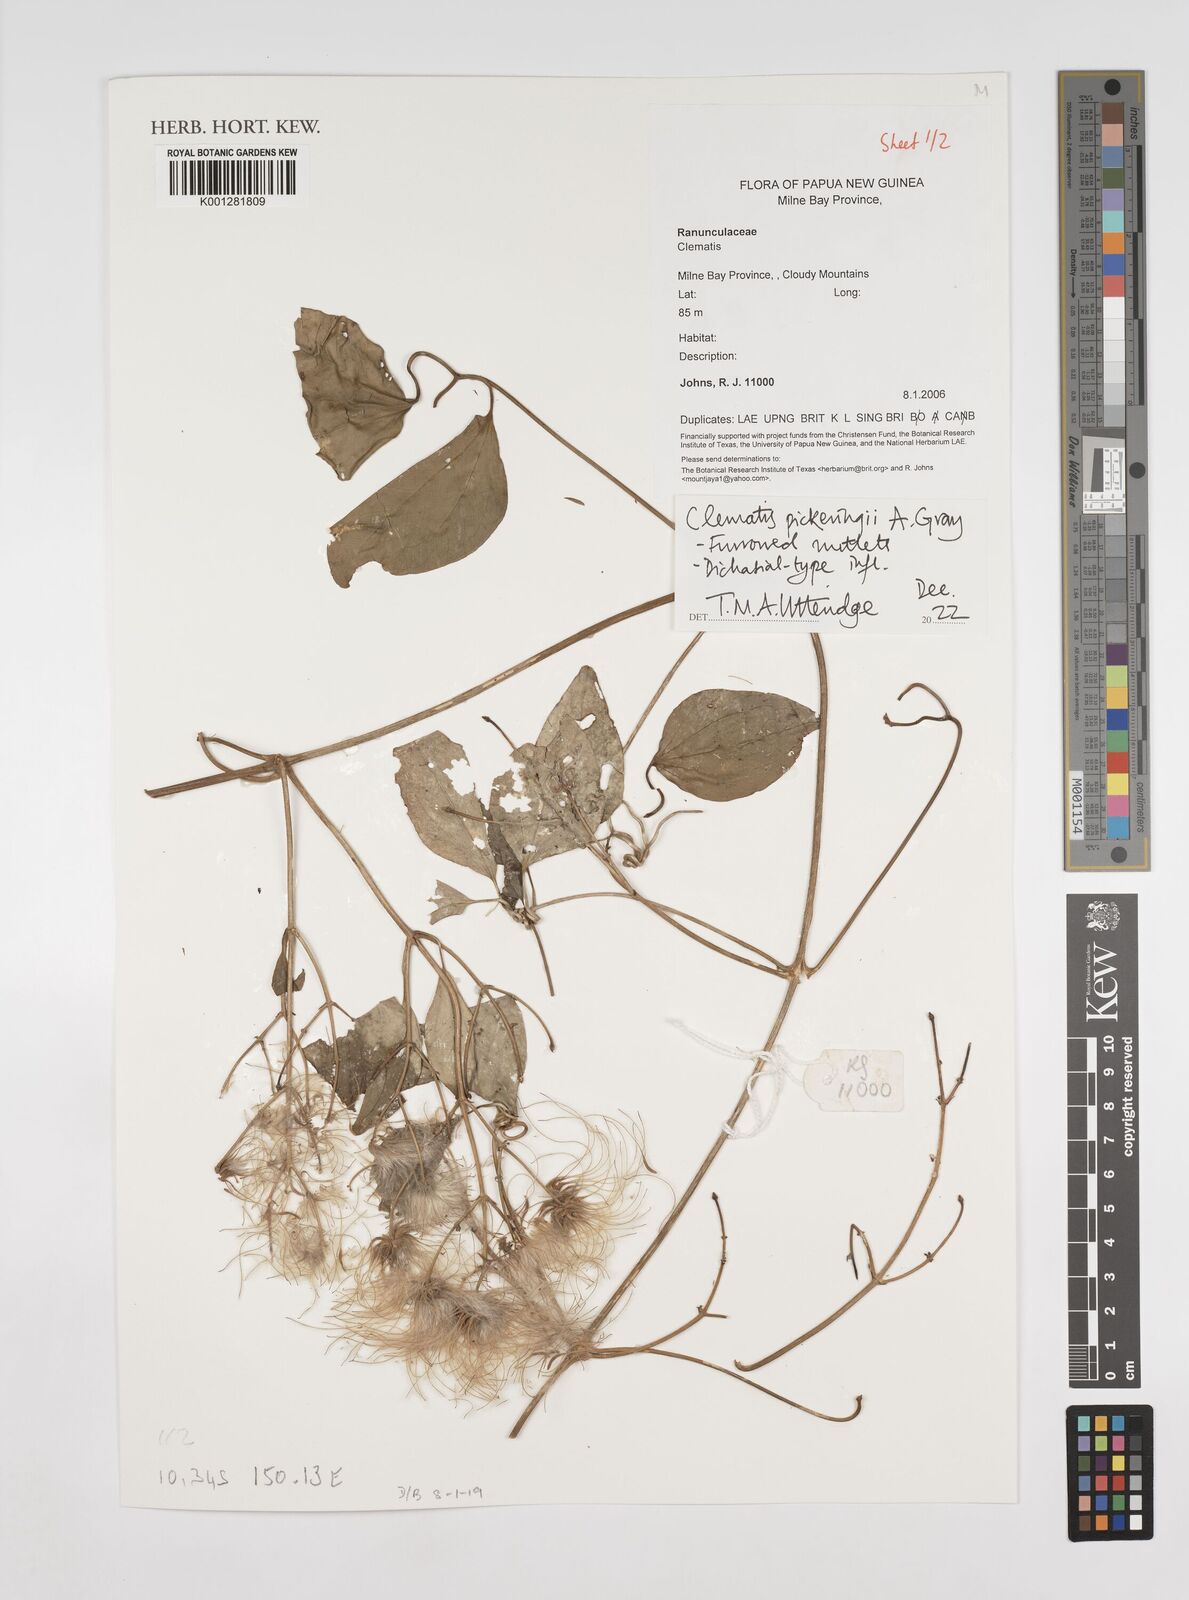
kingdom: Plantae
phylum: Tracheophyta
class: Magnoliopsida
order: Ranunculales
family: Ranunculaceae
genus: Clematis
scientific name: Clematis pickeringii
